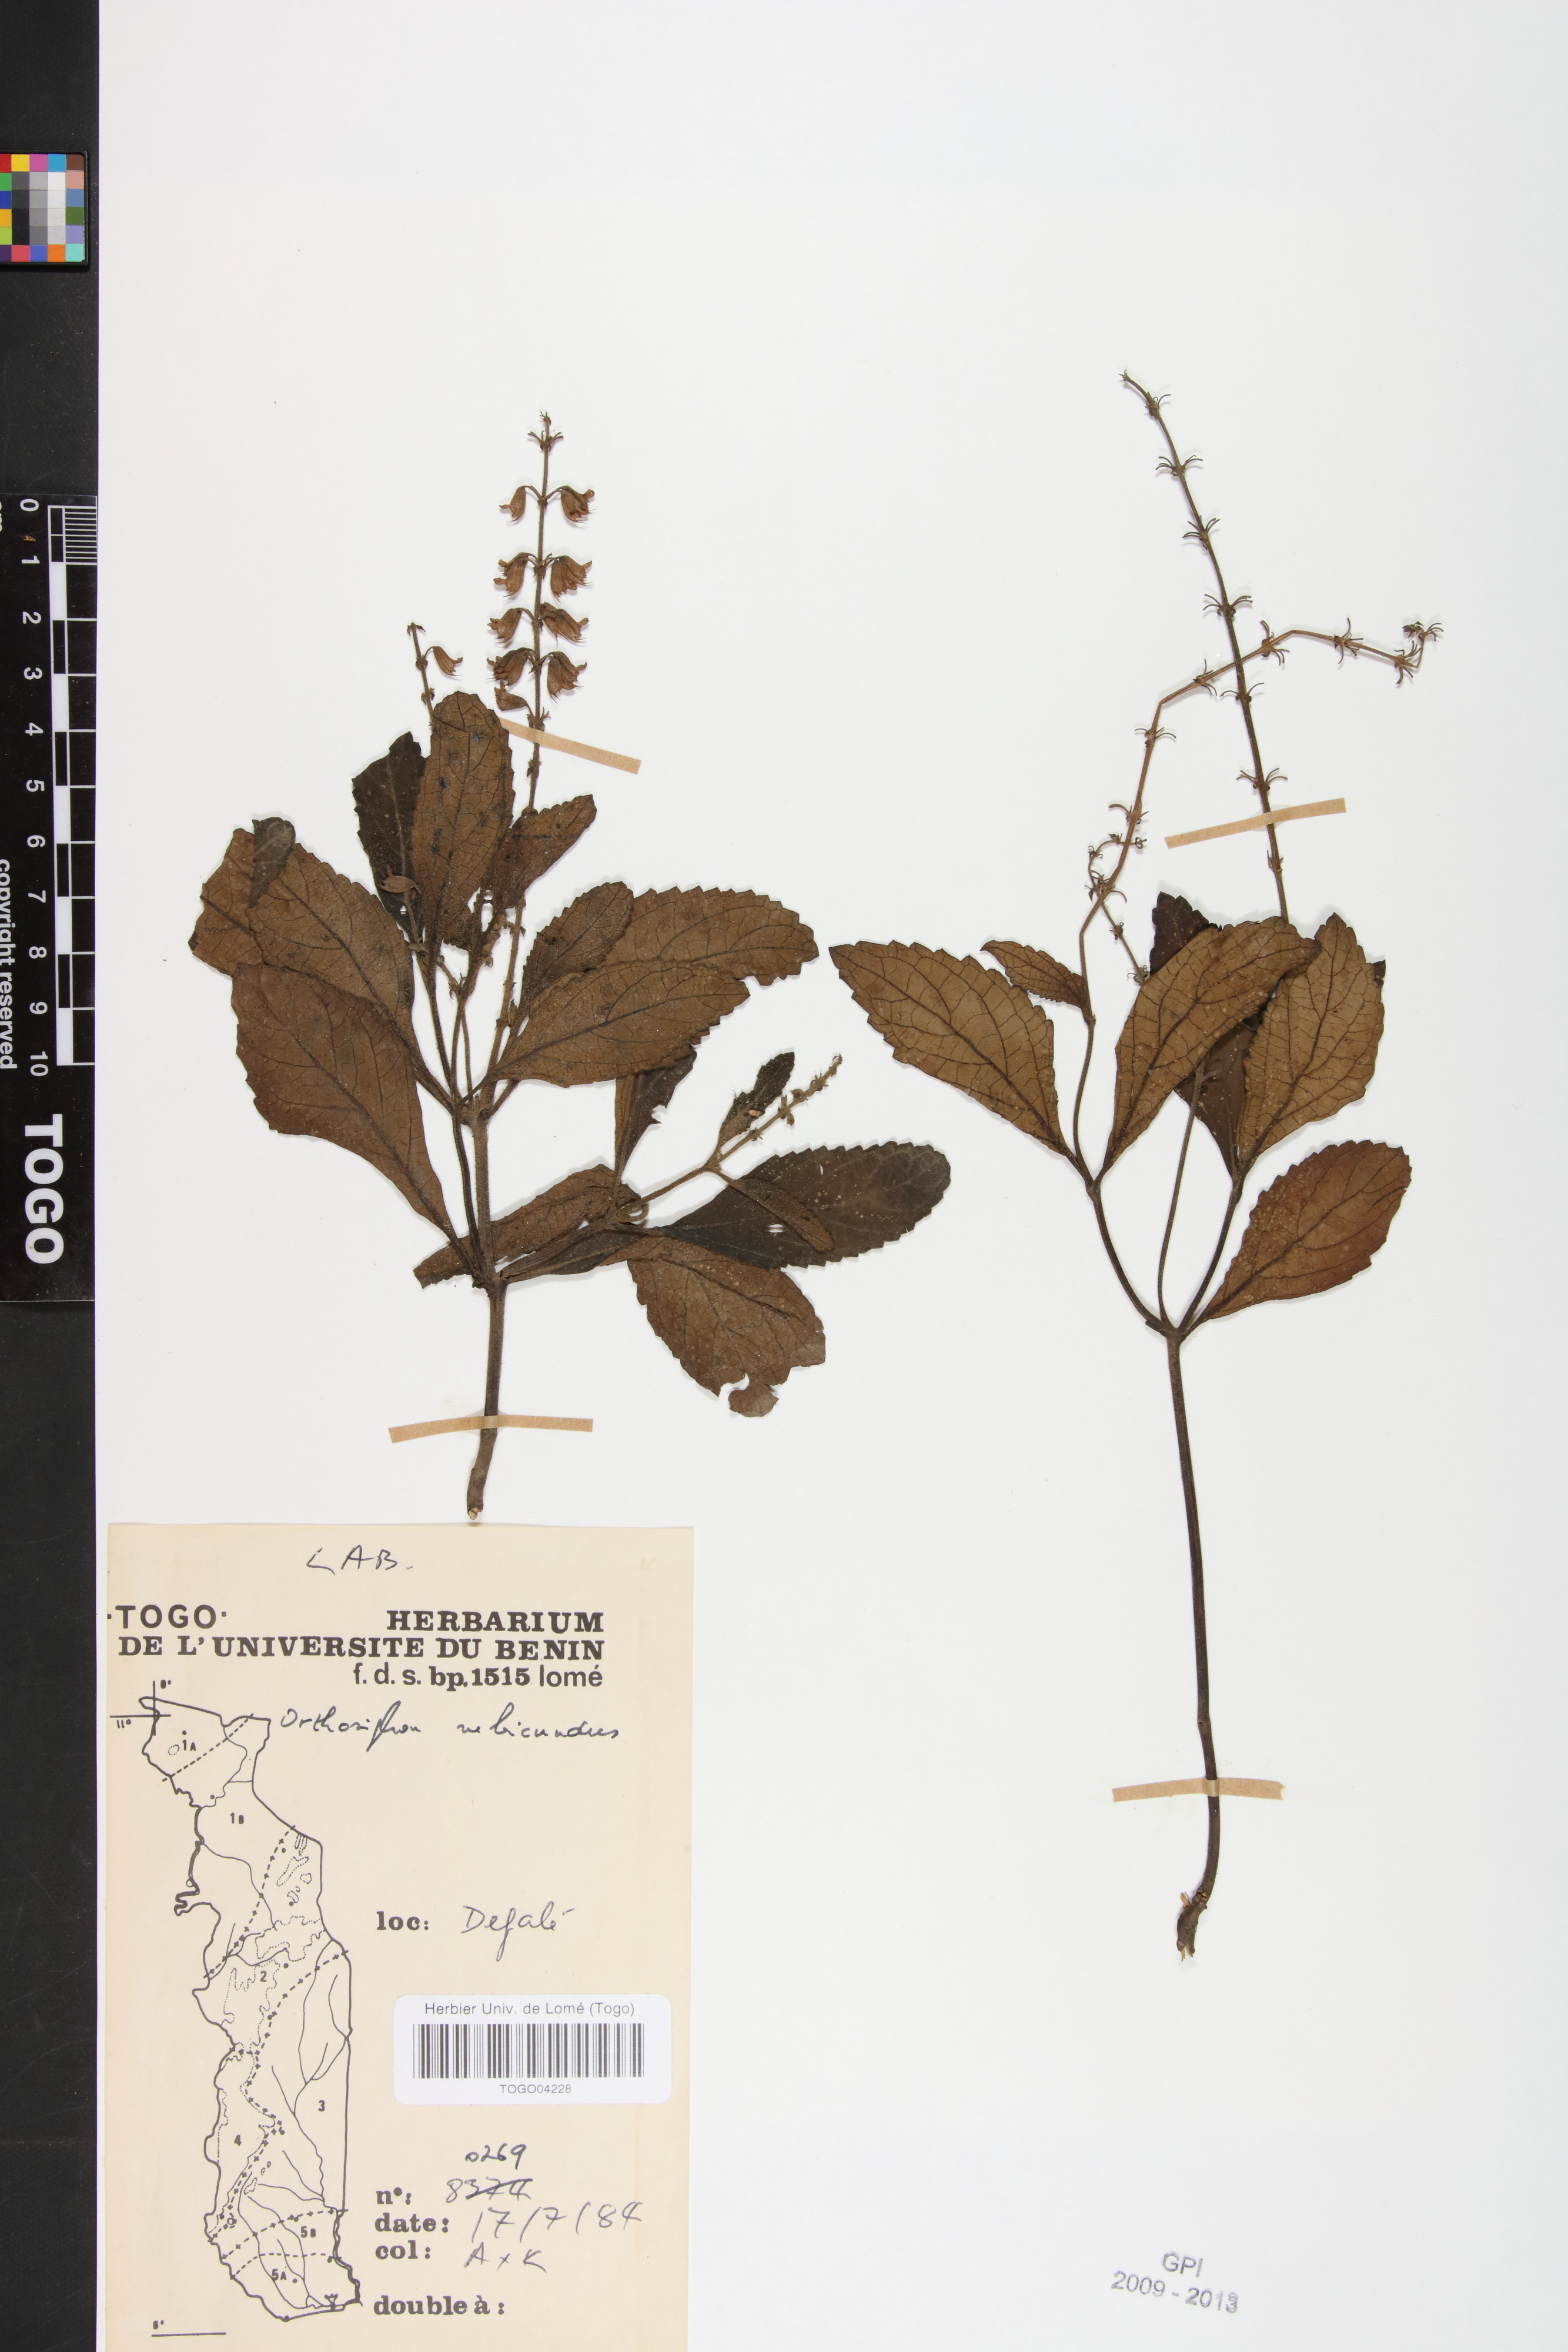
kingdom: Plantae
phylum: Tracheophyta
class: Magnoliopsida
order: Lamiales
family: Lamiaceae
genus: Orthosiphon
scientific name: Orthosiphon rubicundus
